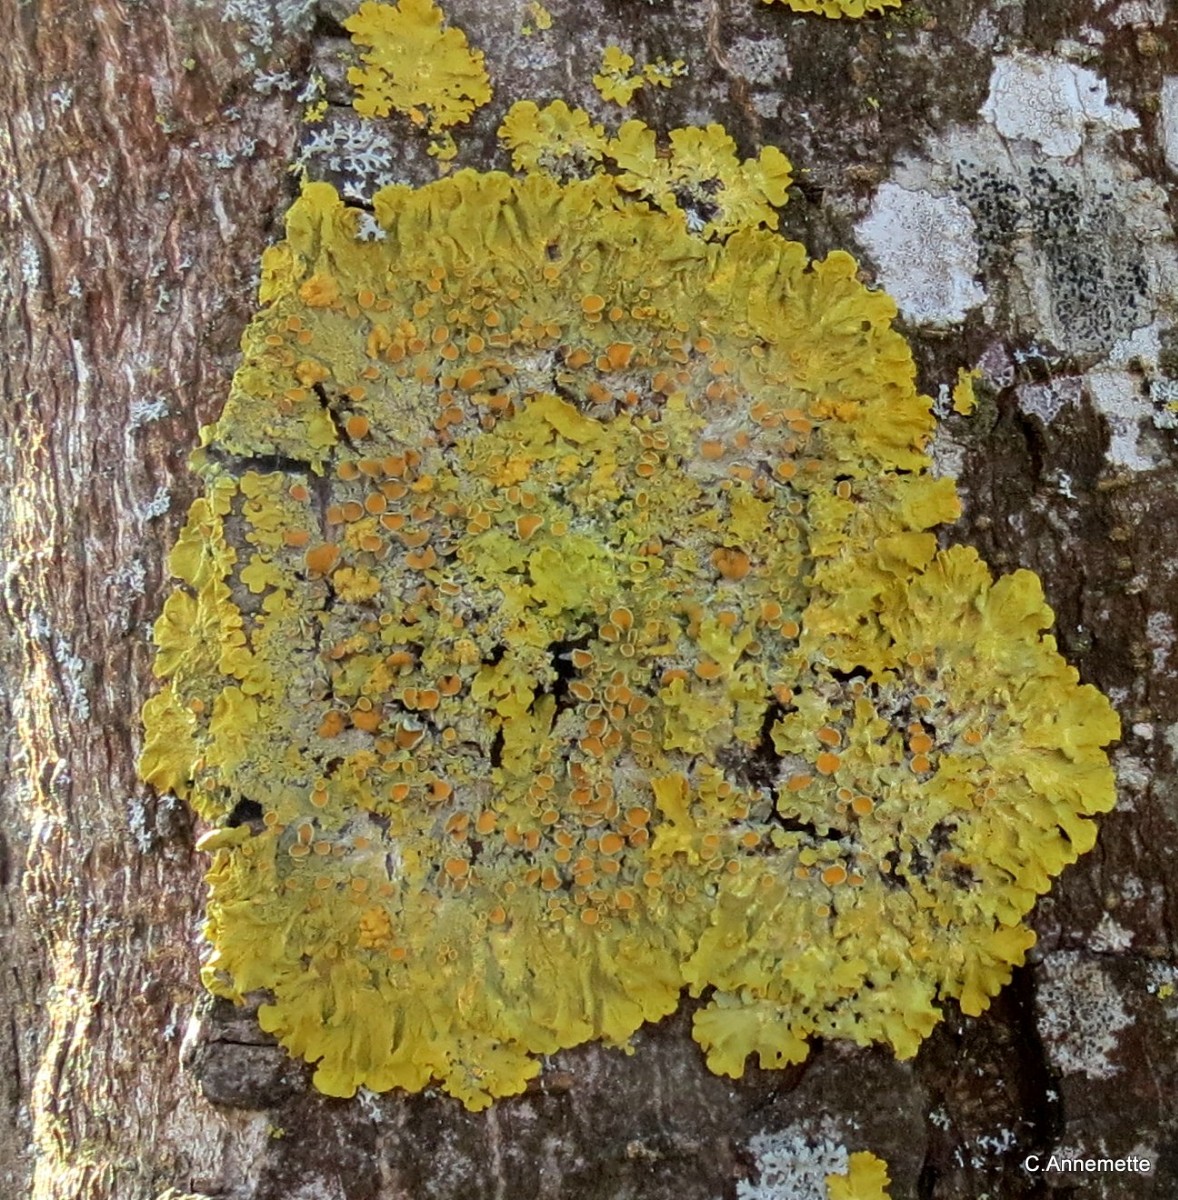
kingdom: Fungi
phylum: Ascomycota
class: Lecanoromycetes
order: Teloschistales
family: Teloschistaceae
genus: Xanthoria
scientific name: Xanthoria parietina
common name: almindelig væggelav
